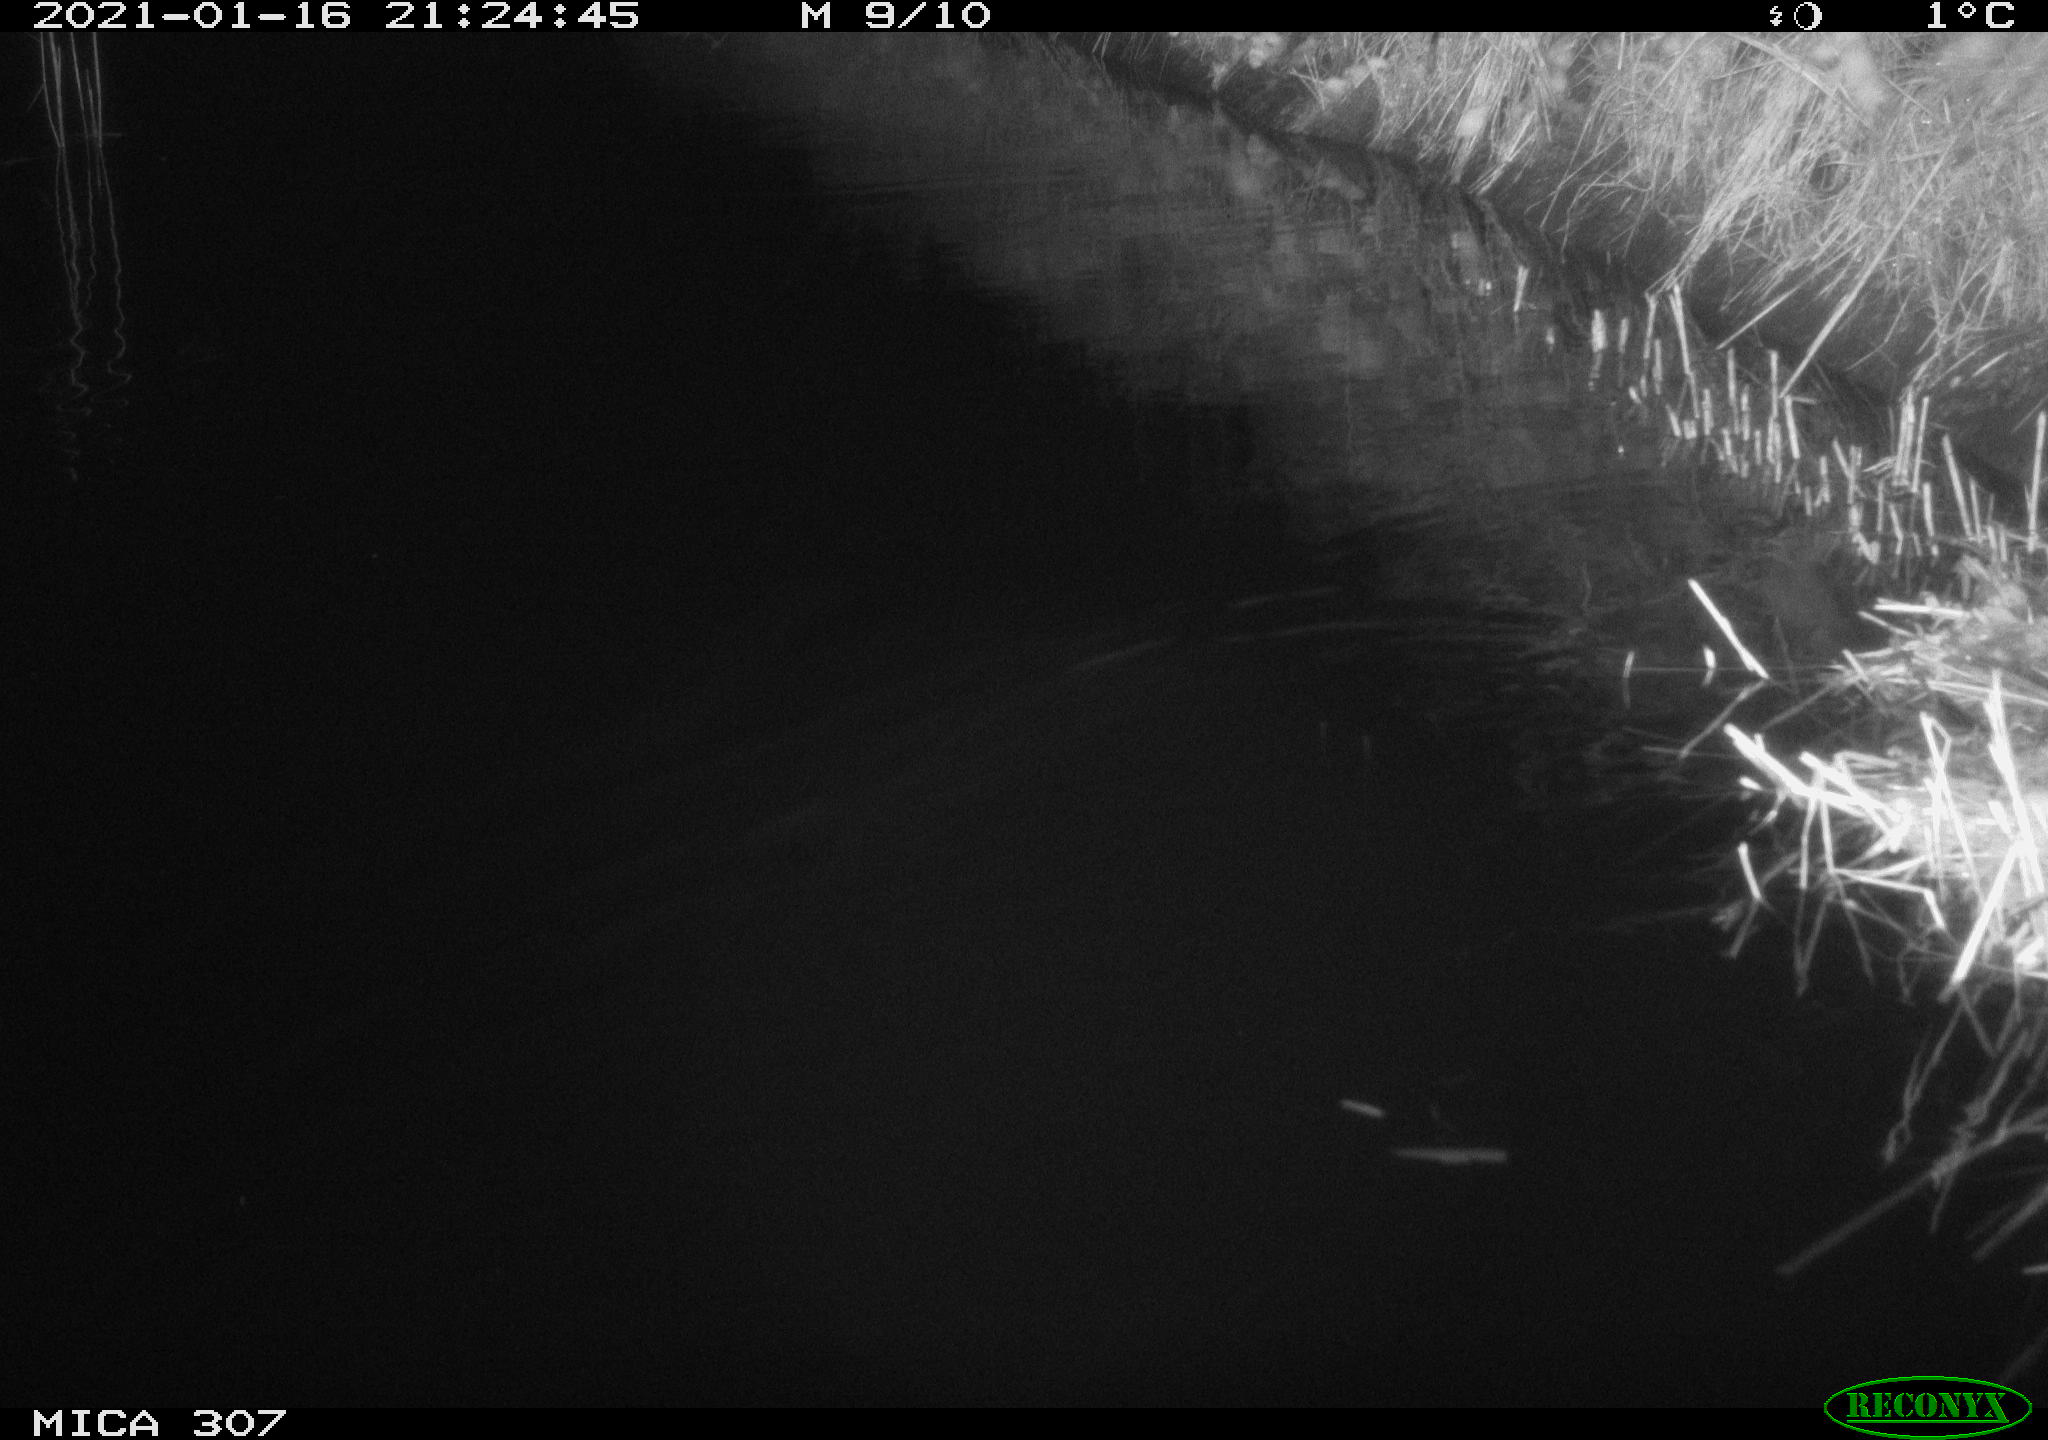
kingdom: Animalia
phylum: Chordata
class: Mammalia
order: Rodentia
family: Muridae
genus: Rattus
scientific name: Rattus norvegicus
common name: Brown rat
